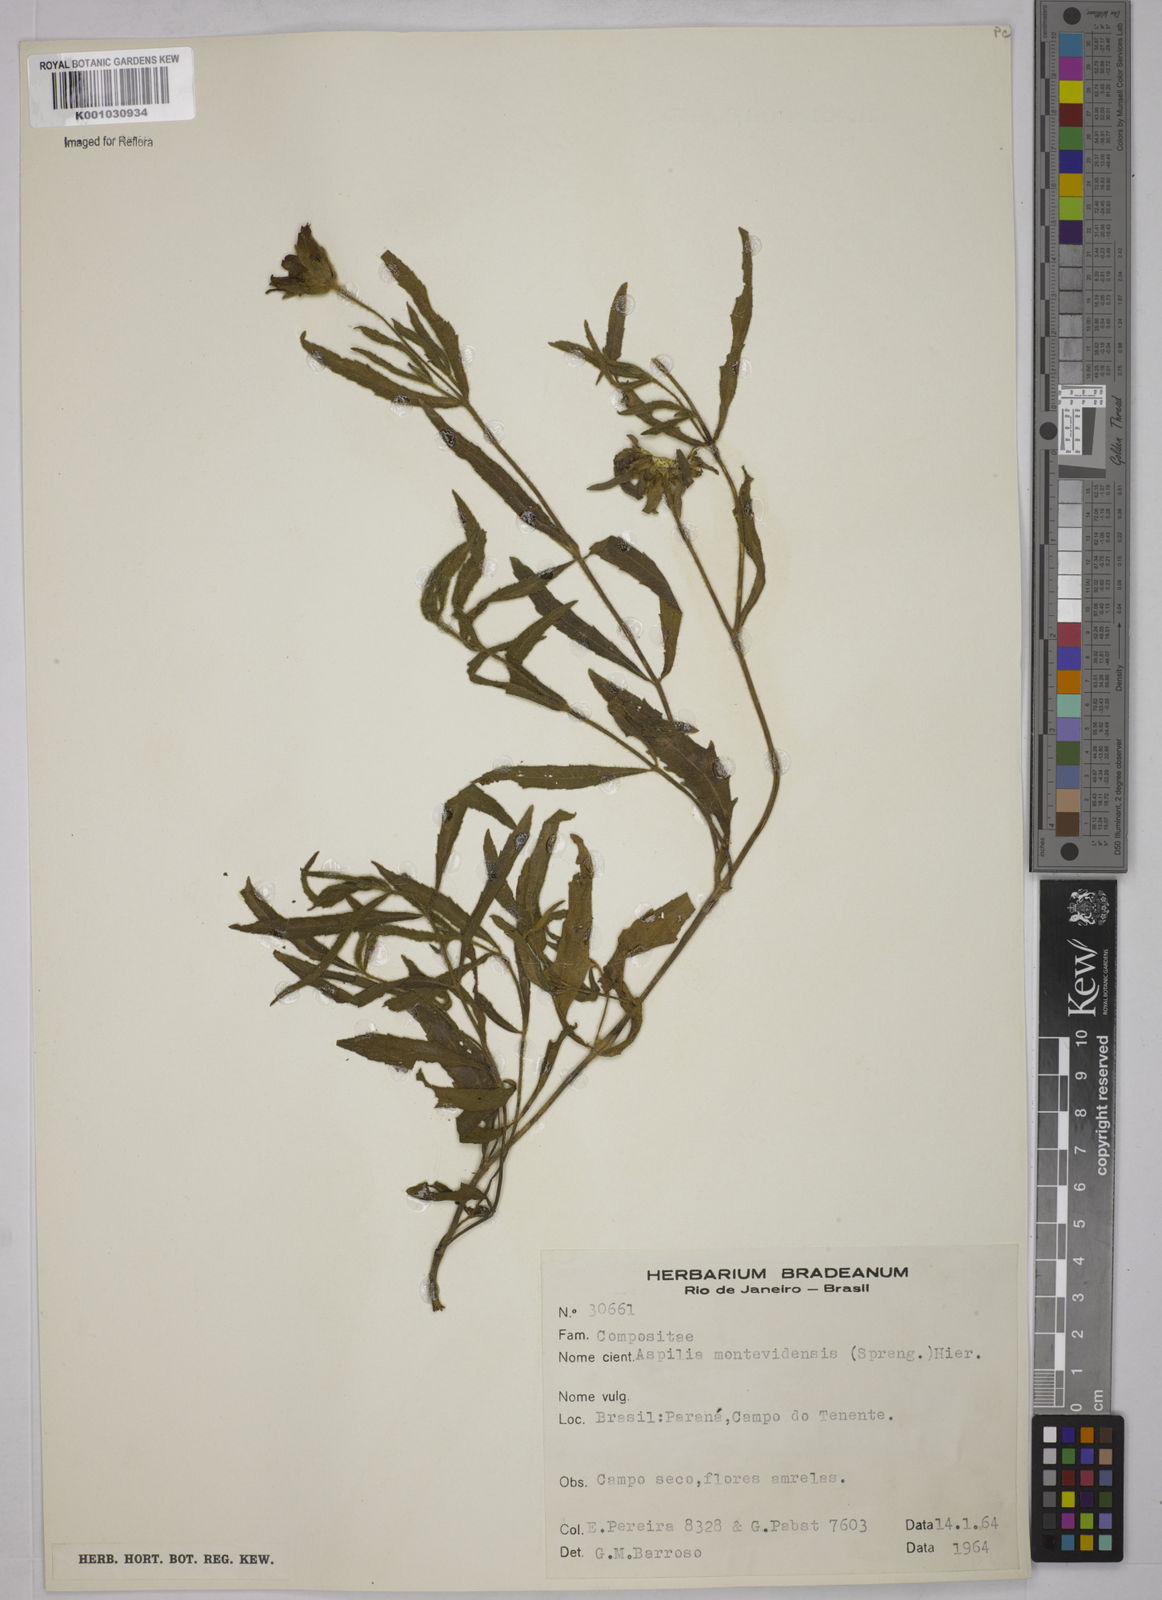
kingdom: Plantae
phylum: Tracheophyta
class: Magnoliopsida
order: Asterales
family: Asteraceae
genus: Wedelia
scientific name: Wedelia montevidensis
